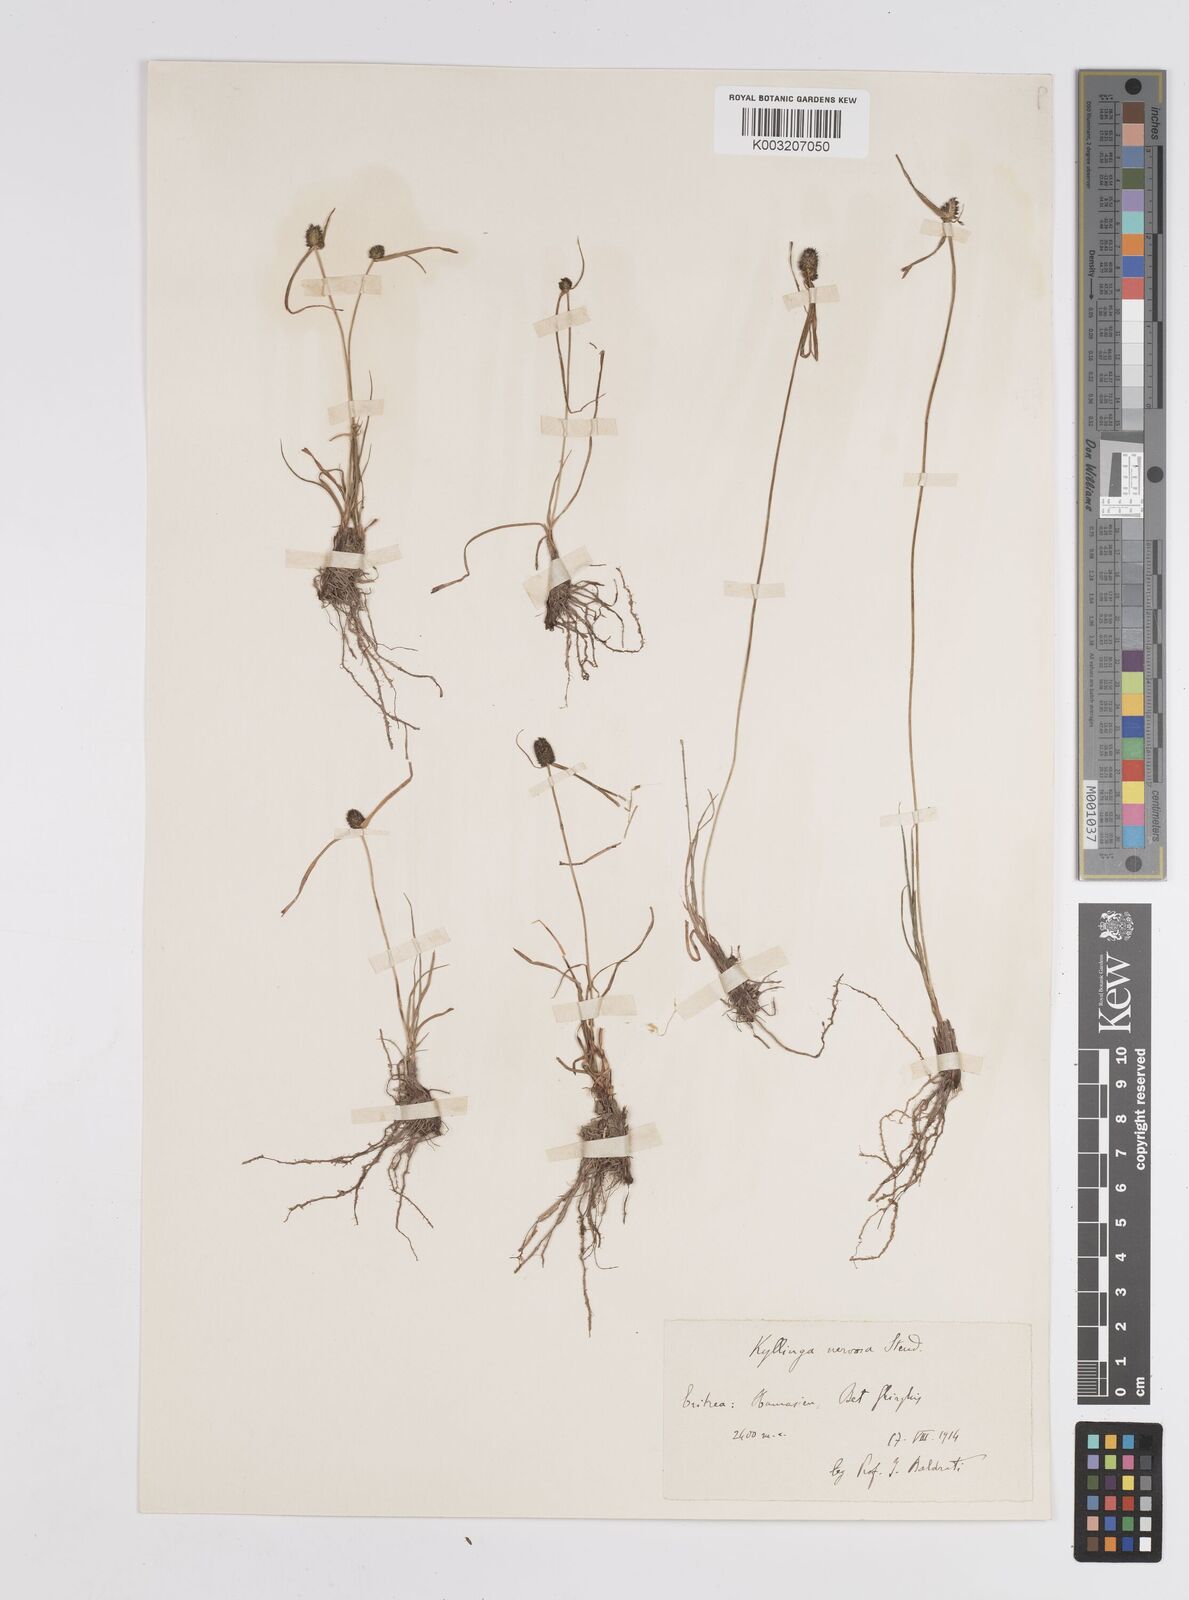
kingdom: Plantae
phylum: Tracheophyta
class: Liliopsida
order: Poales
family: Cyperaceae
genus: Cyperus
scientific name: Cyperus costatus
